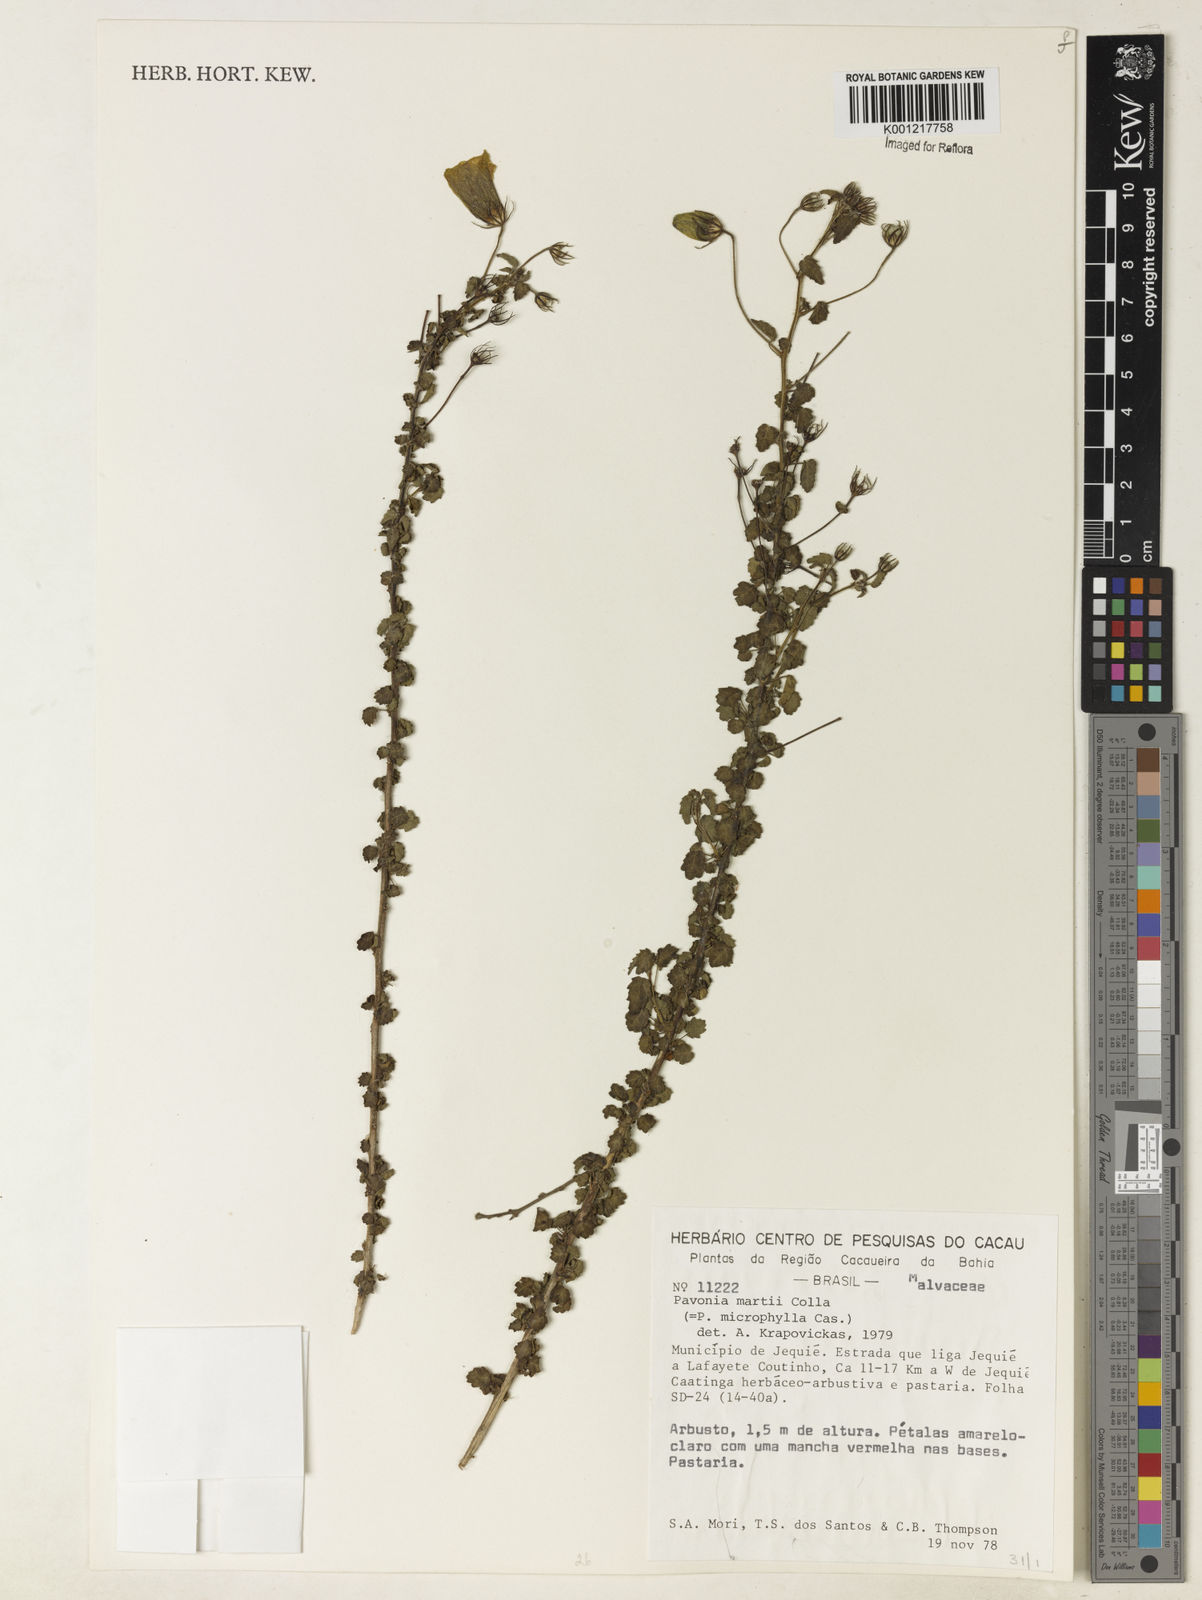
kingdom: Plantae
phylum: Tracheophyta
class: Magnoliopsida
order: Malvales
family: Malvaceae
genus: Pavonia
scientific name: Pavonia martii
